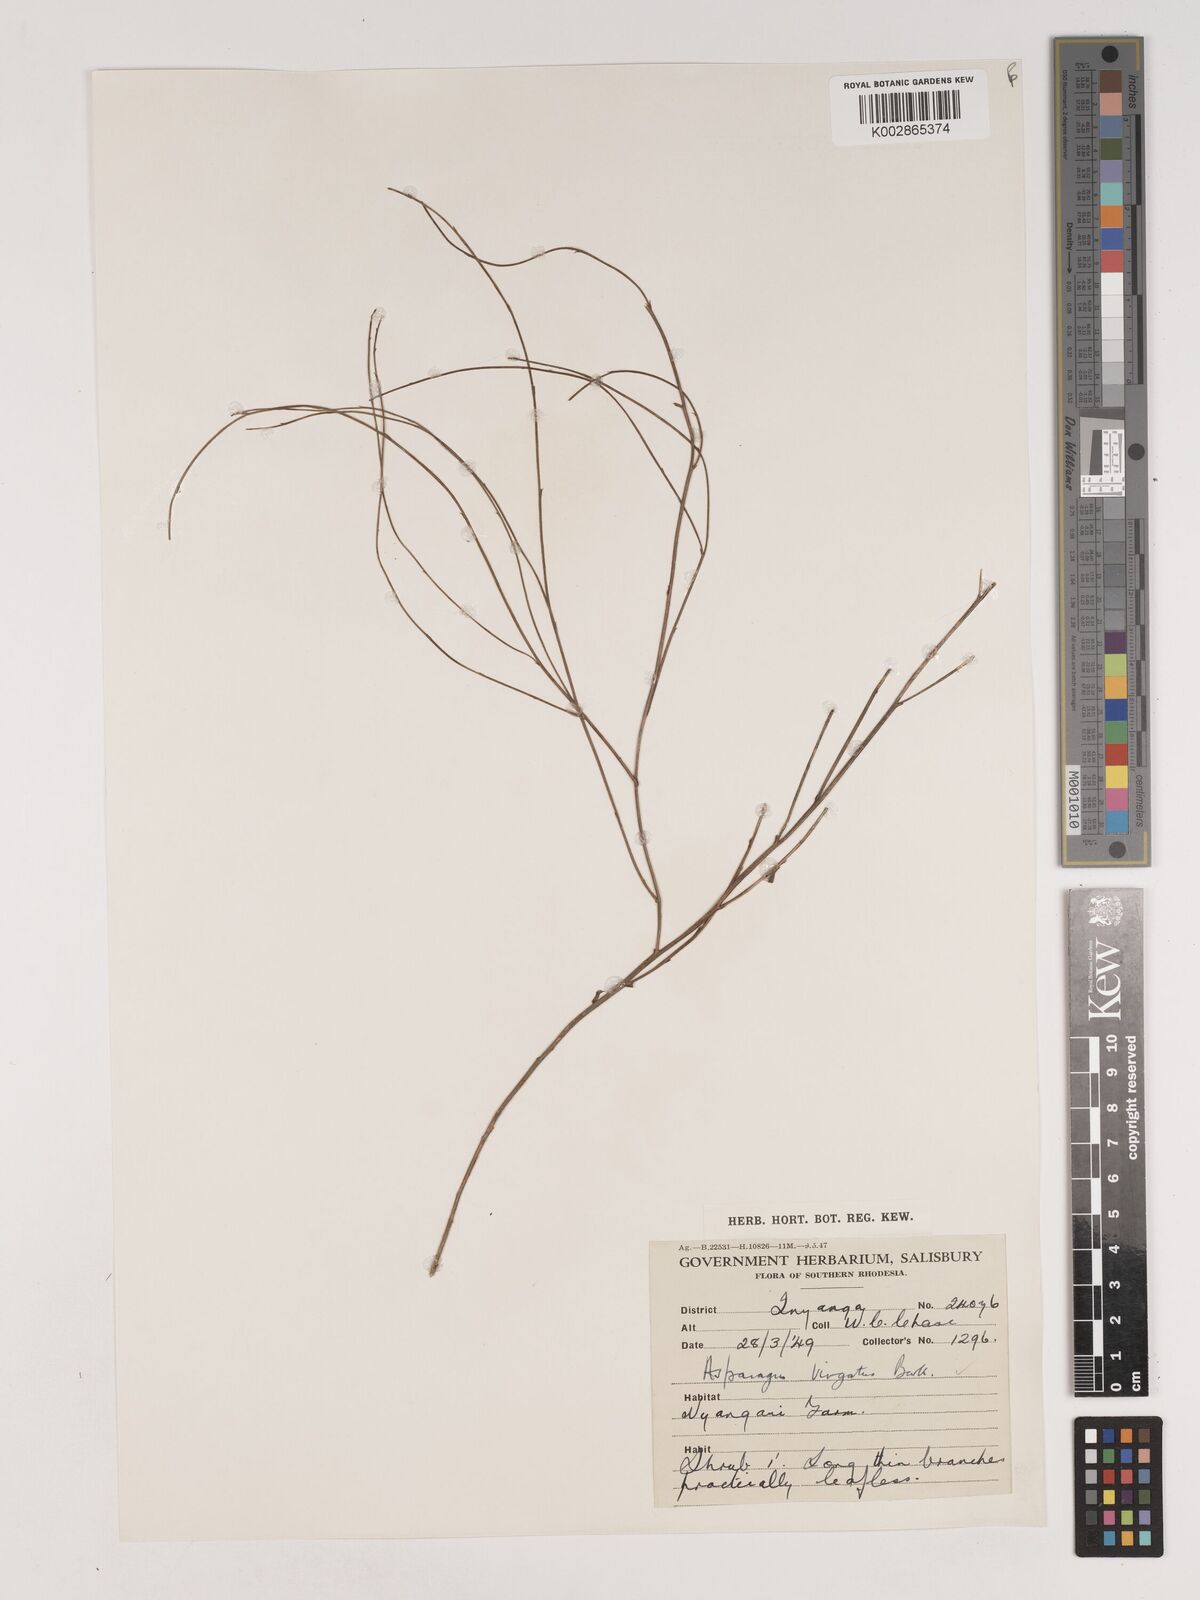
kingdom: Plantae
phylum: Tracheophyta
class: Liliopsida
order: Asparagales
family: Asparagaceae
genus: Asparagus
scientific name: Asparagus virgatus
